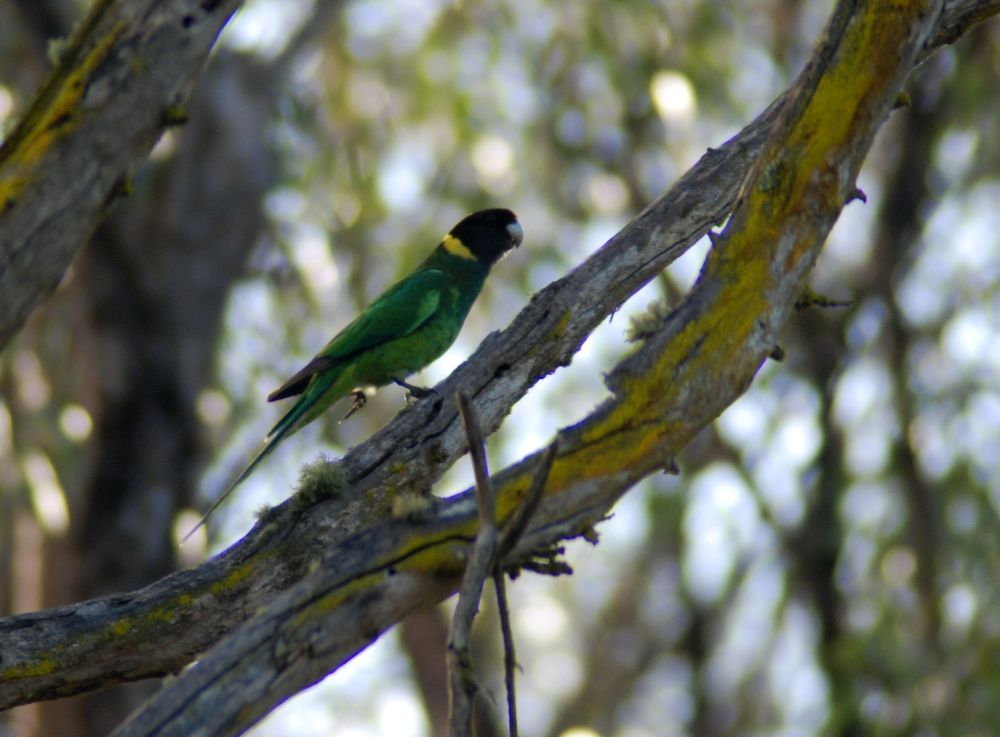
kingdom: Animalia
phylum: Chordata
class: Aves
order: Psittaciformes
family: Psittacidae
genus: Barnardius
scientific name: Barnardius zonarius
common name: Australian ringneck
